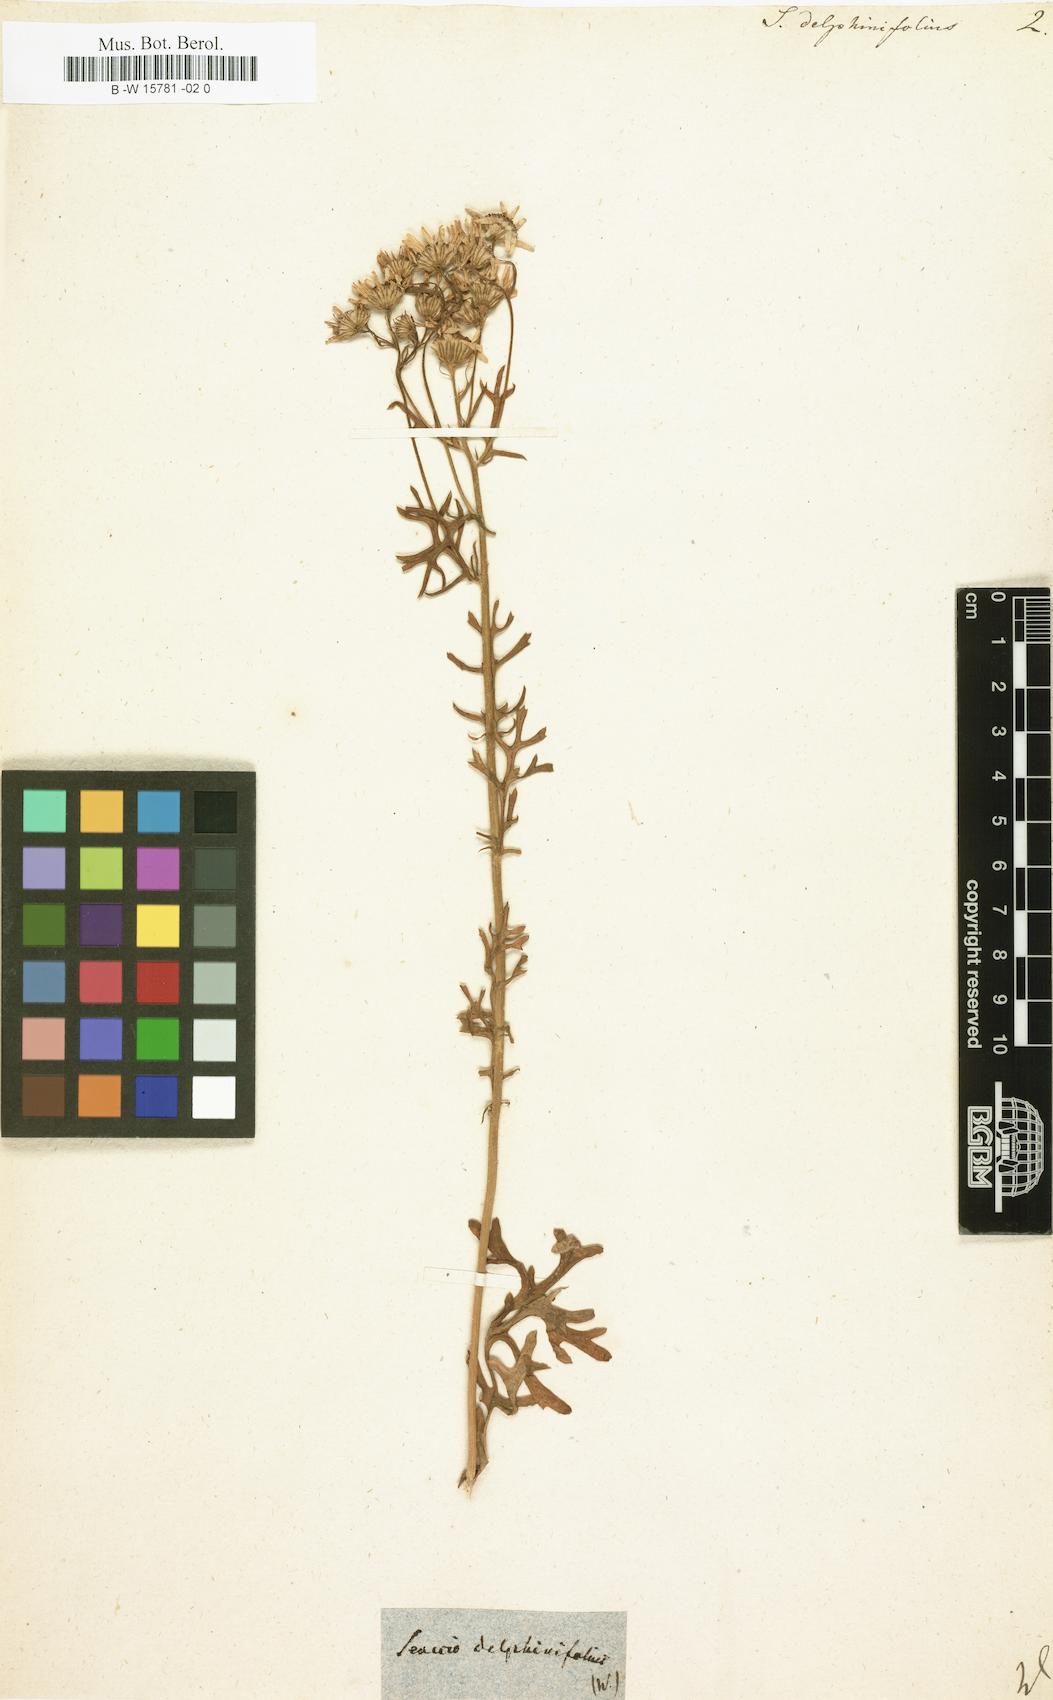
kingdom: Plantae
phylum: Tracheophyta
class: Magnoliopsida
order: Asterales
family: Asteraceae
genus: Jacobaea
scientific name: Jacobaea erucifolia
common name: Hoary ragwort
